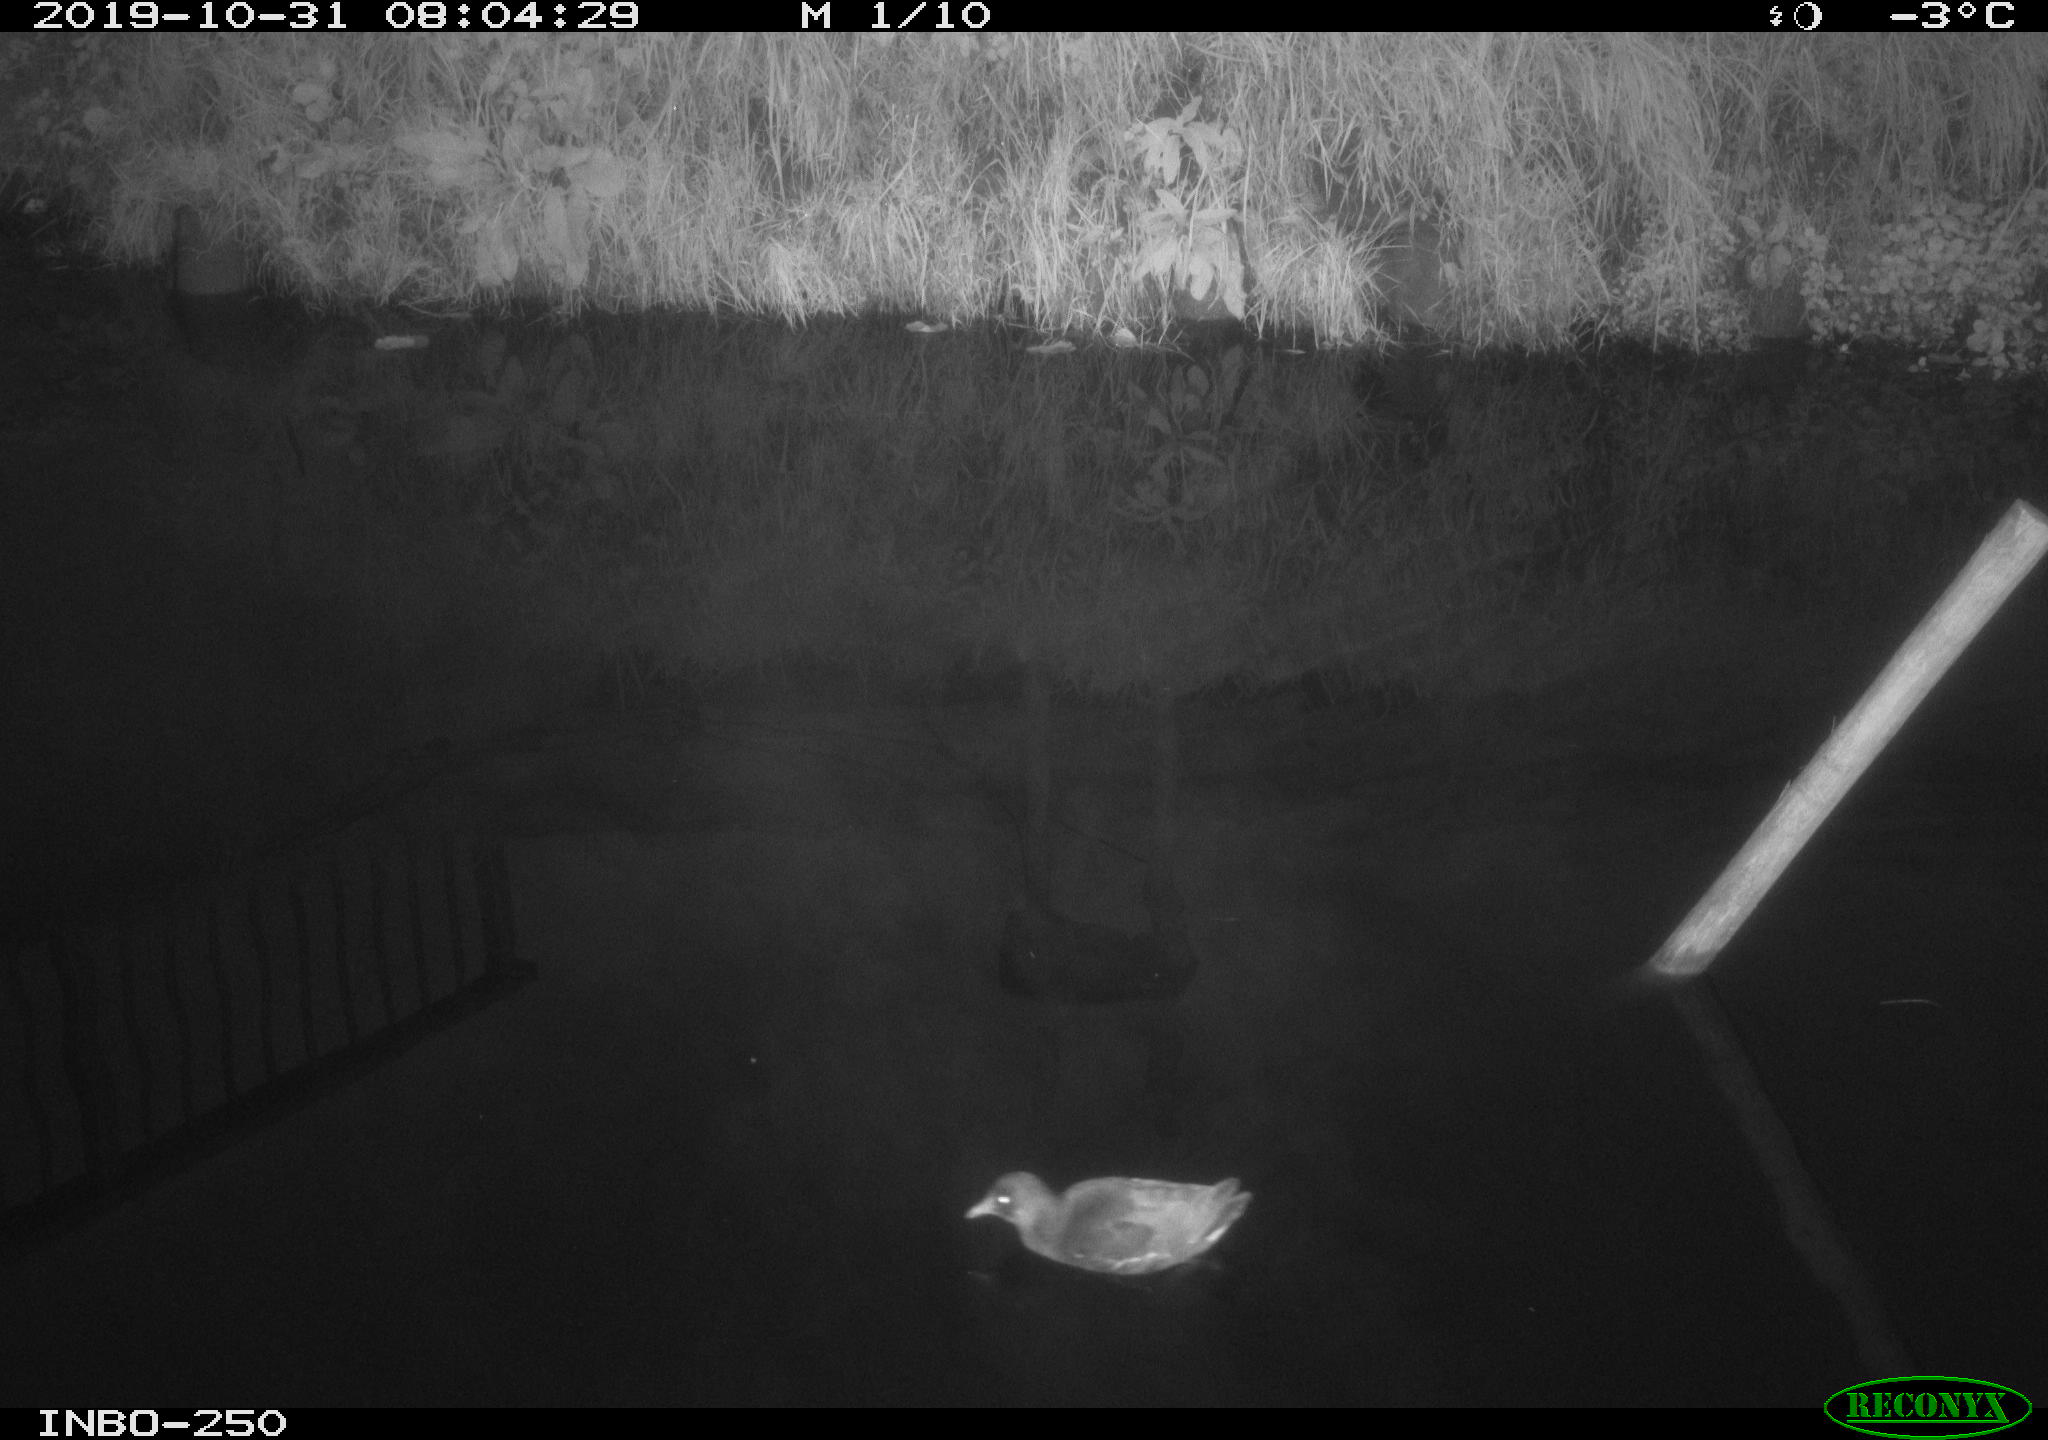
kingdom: Animalia
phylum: Chordata
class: Aves
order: Gruiformes
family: Rallidae
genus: Gallinula
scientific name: Gallinula chloropus
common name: Common moorhen
